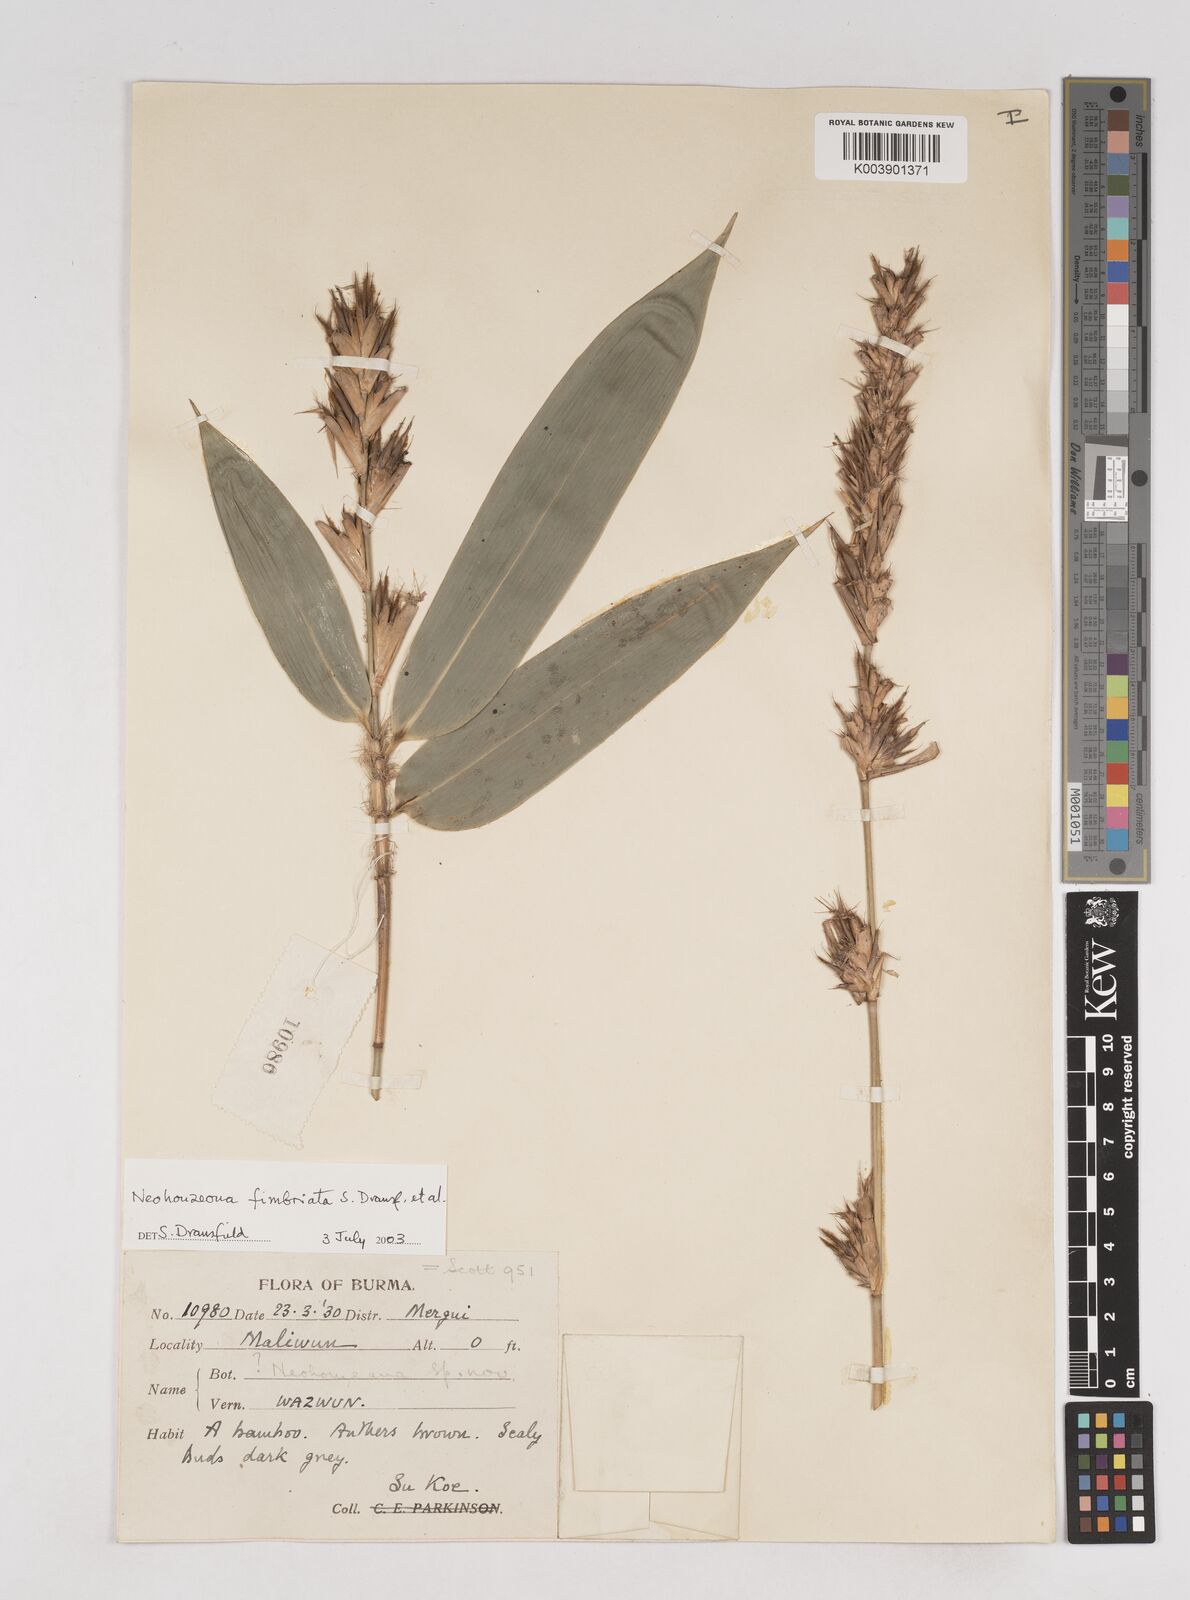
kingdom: Plantae
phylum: Tracheophyta
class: Liliopsida
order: Poales
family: Poaceae
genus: Schizostachyum
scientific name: Schizostachyum
